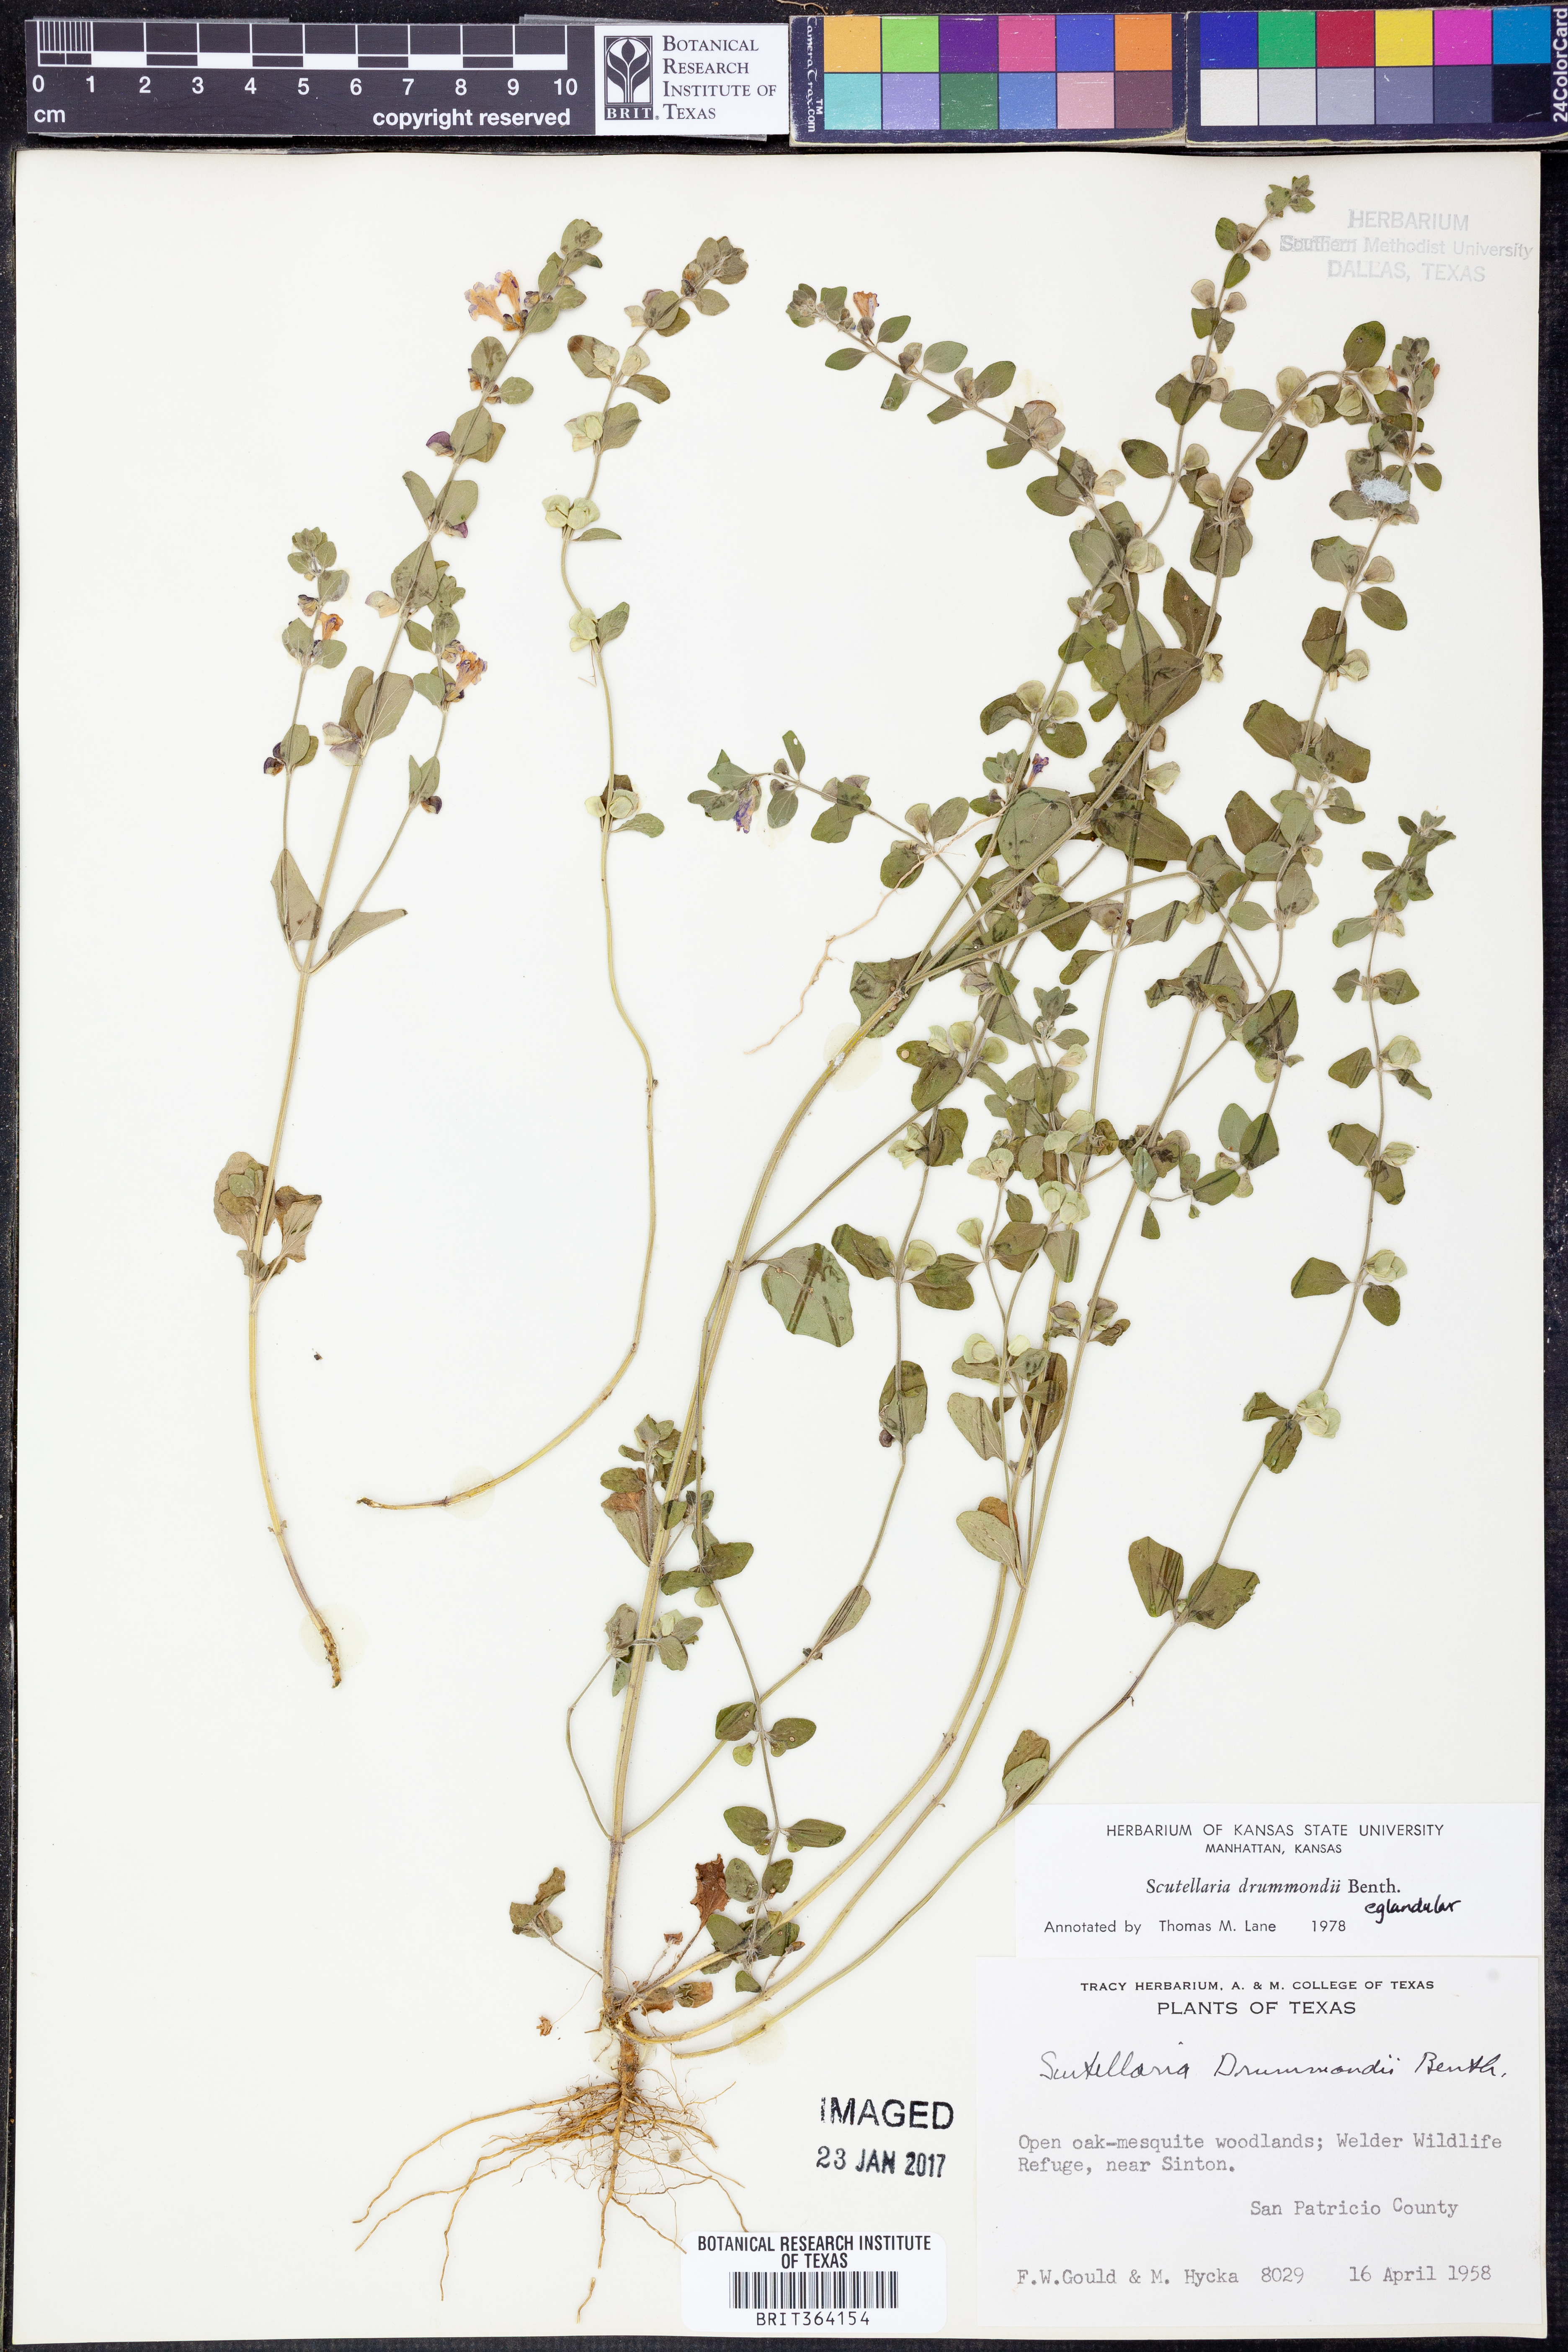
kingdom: Plantae
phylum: Tracheophyta
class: Magnoliopsida
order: Lamiales
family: Lamiaceae
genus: Scutellaria
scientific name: Scutellaria drummondii
